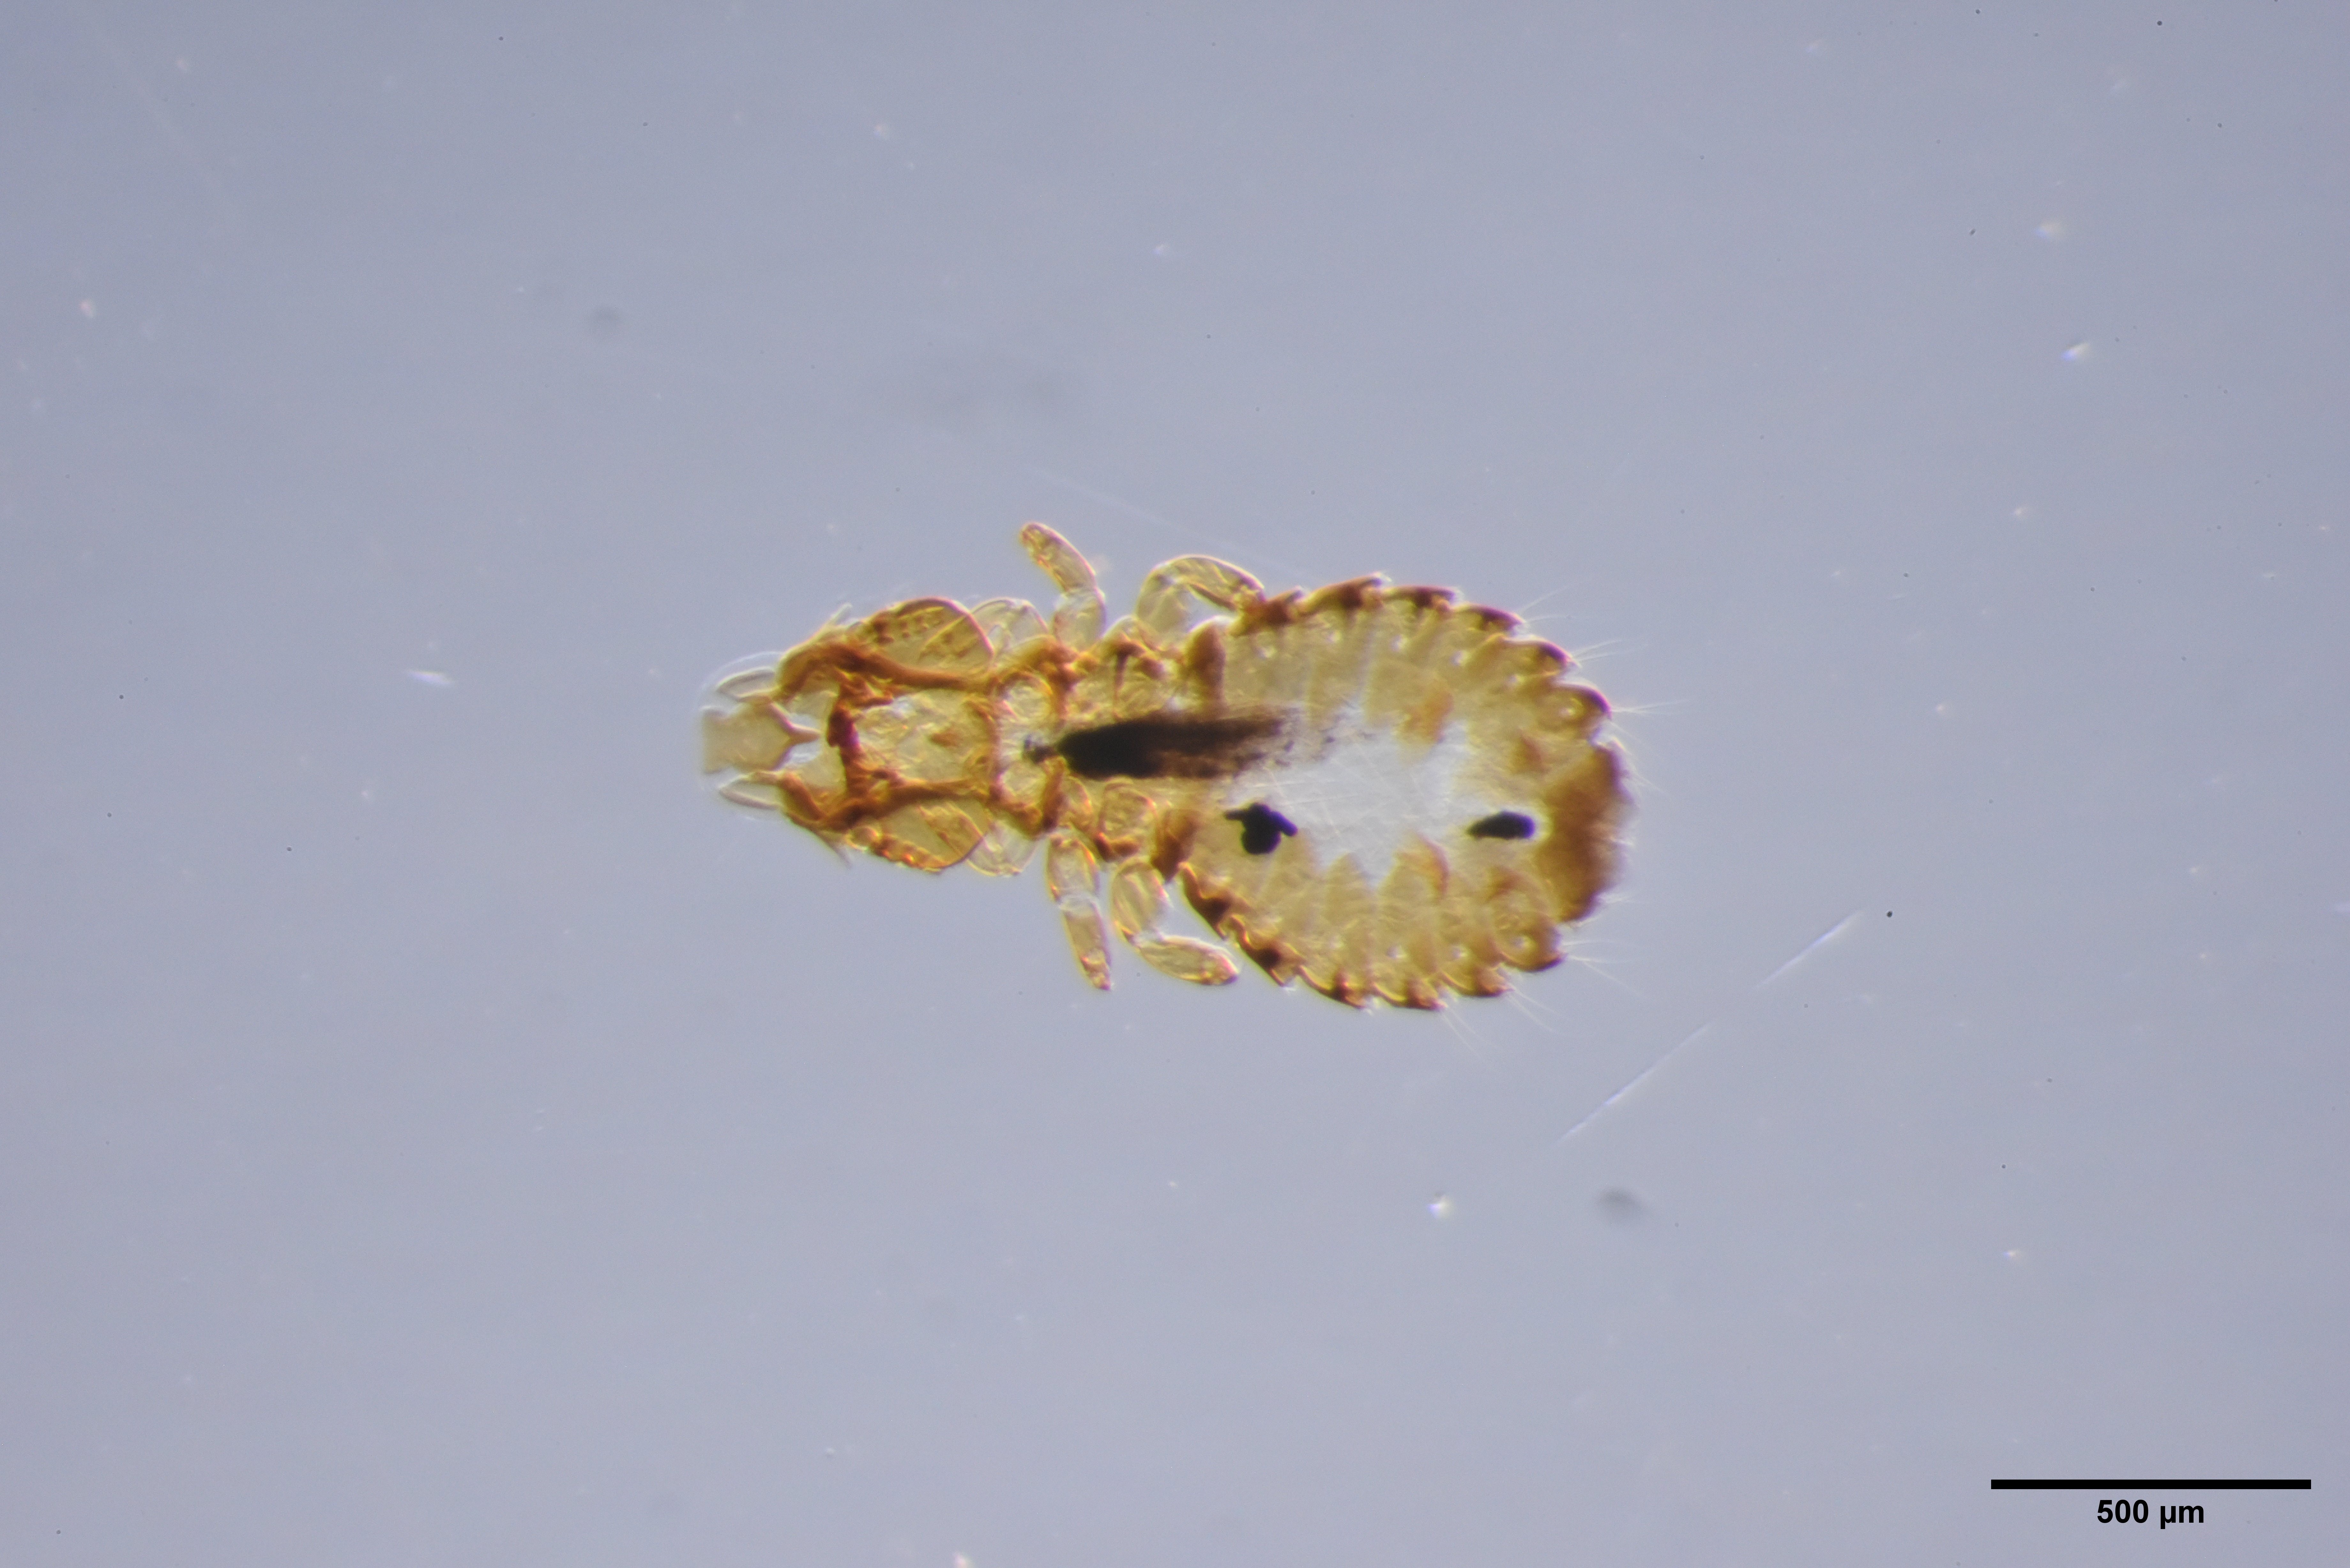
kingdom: Animalia
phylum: Arthropoda
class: Insecta
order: Psocodea
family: Philopteridae
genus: Anatoecus
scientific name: Anatoecus dentatus
